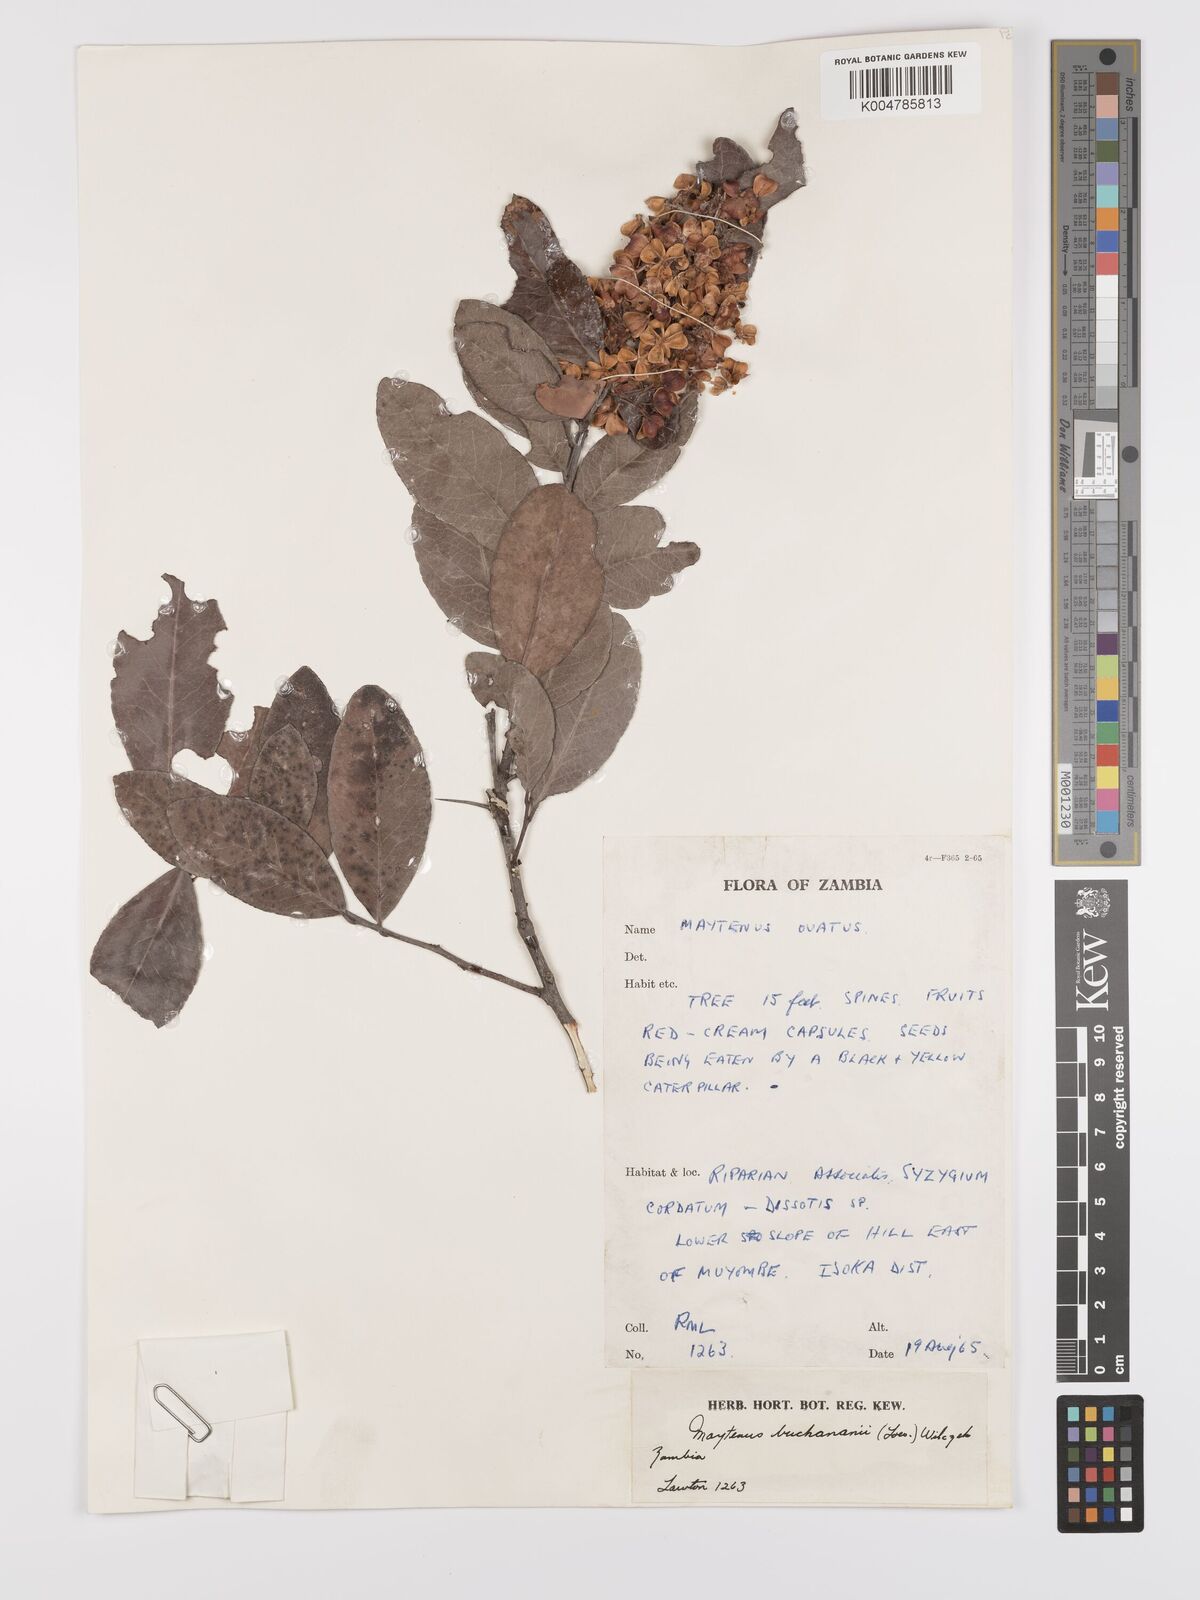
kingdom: Plantae
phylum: Tracheophyta
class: Magnoliopsida
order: Celastrales
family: Celastraceae
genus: Gymnosporia
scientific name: Gymnosporia buchananii
